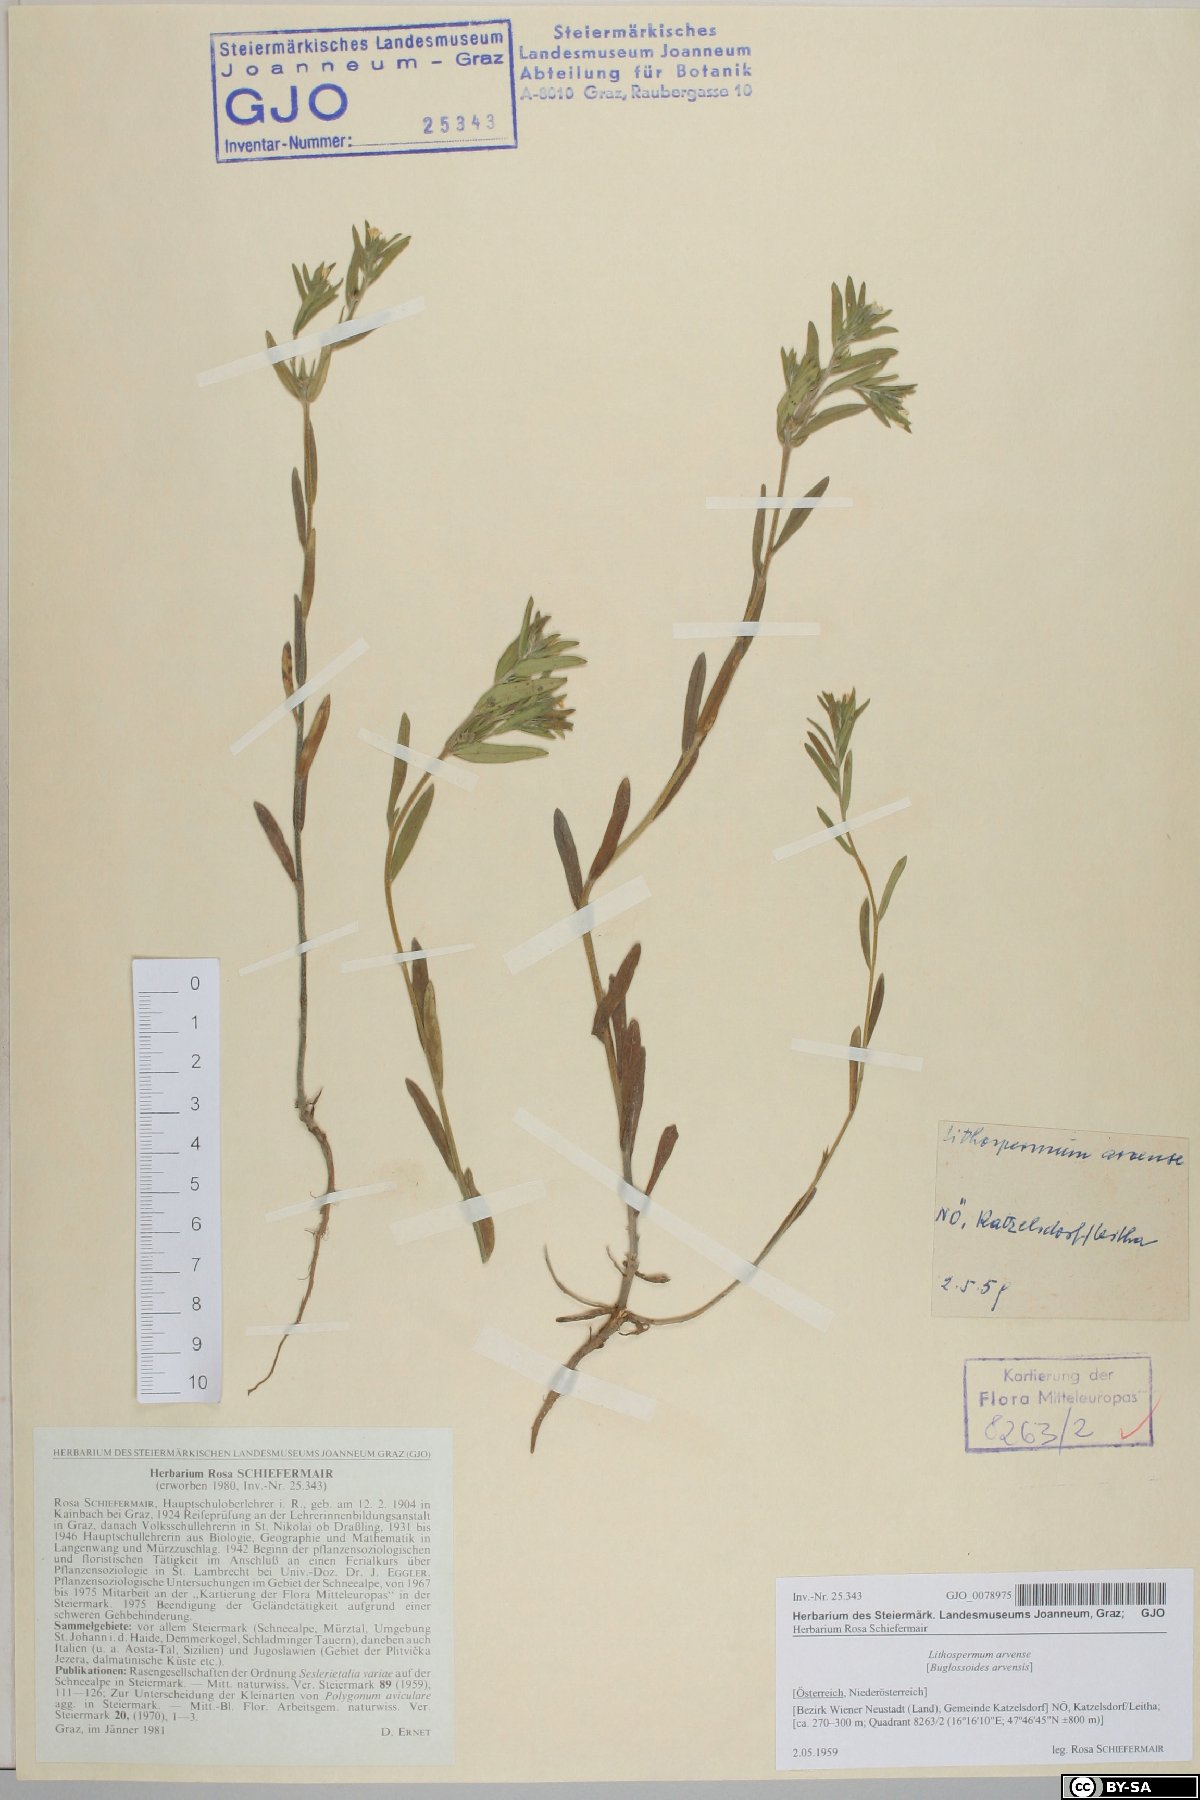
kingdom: Plantae
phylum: Tracheophyta
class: Magnoliopsida
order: Boraginales
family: Boraginaceae
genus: Buglossoides
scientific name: Buglossoides arvensis
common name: Corn gromwell
